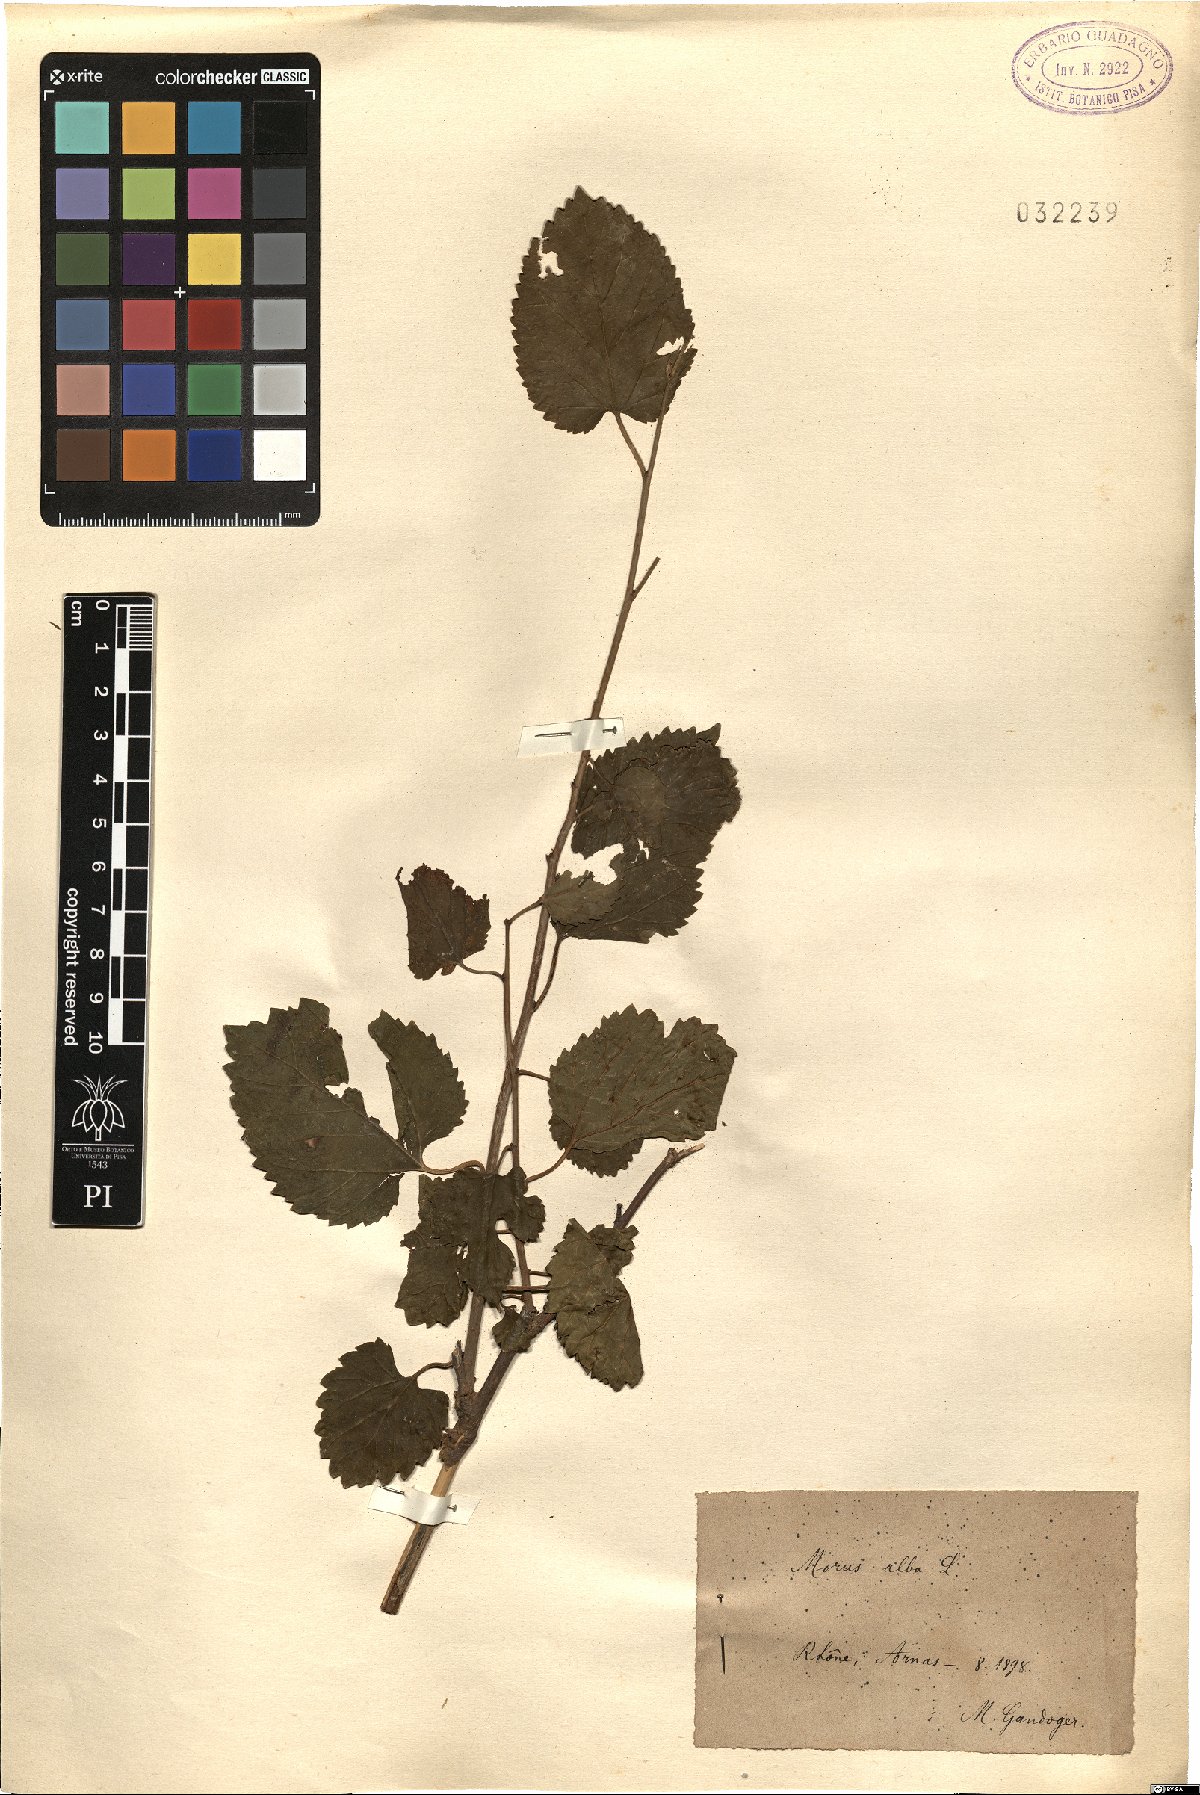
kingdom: Plantae
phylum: Tracheophyta
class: Magnoliopsida
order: Rosales
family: Moraceae
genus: Morus
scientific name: Morus alba
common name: White mulberry
